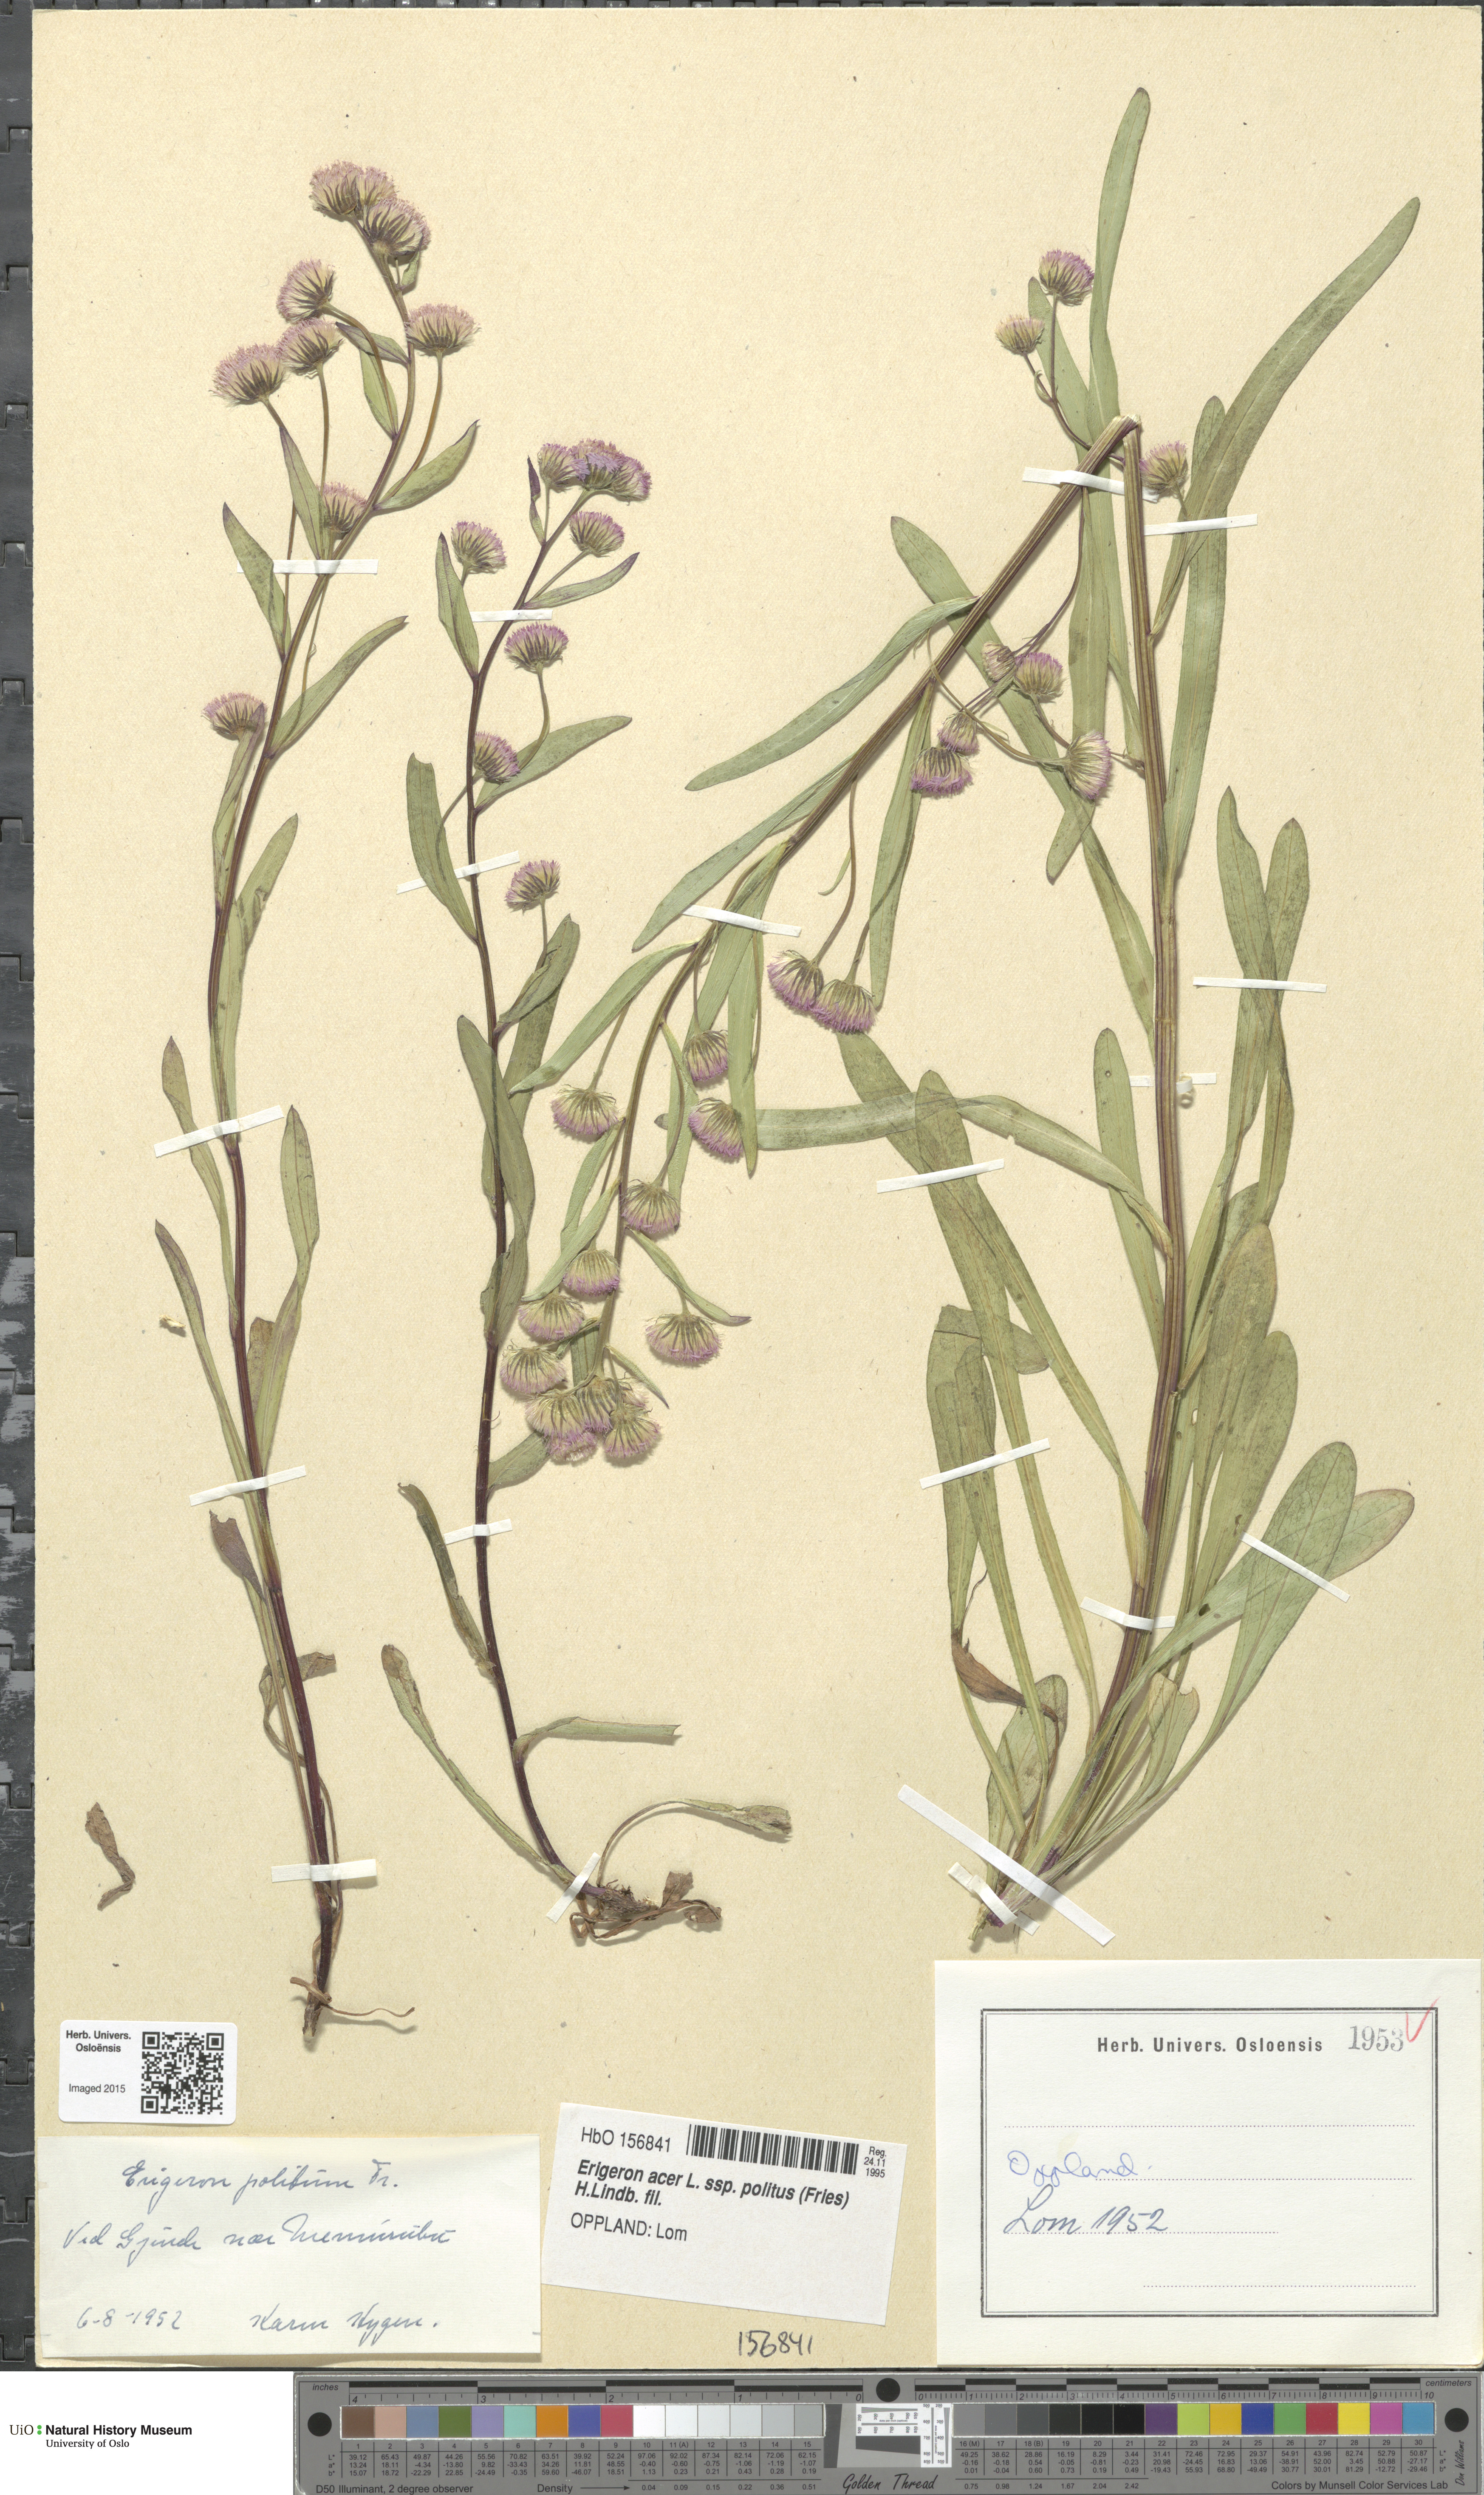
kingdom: Plantae
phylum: Tracheophyta
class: Magnoliopsida
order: Asterales
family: Asteraceae
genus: Erigeron
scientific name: Erigeron politus
